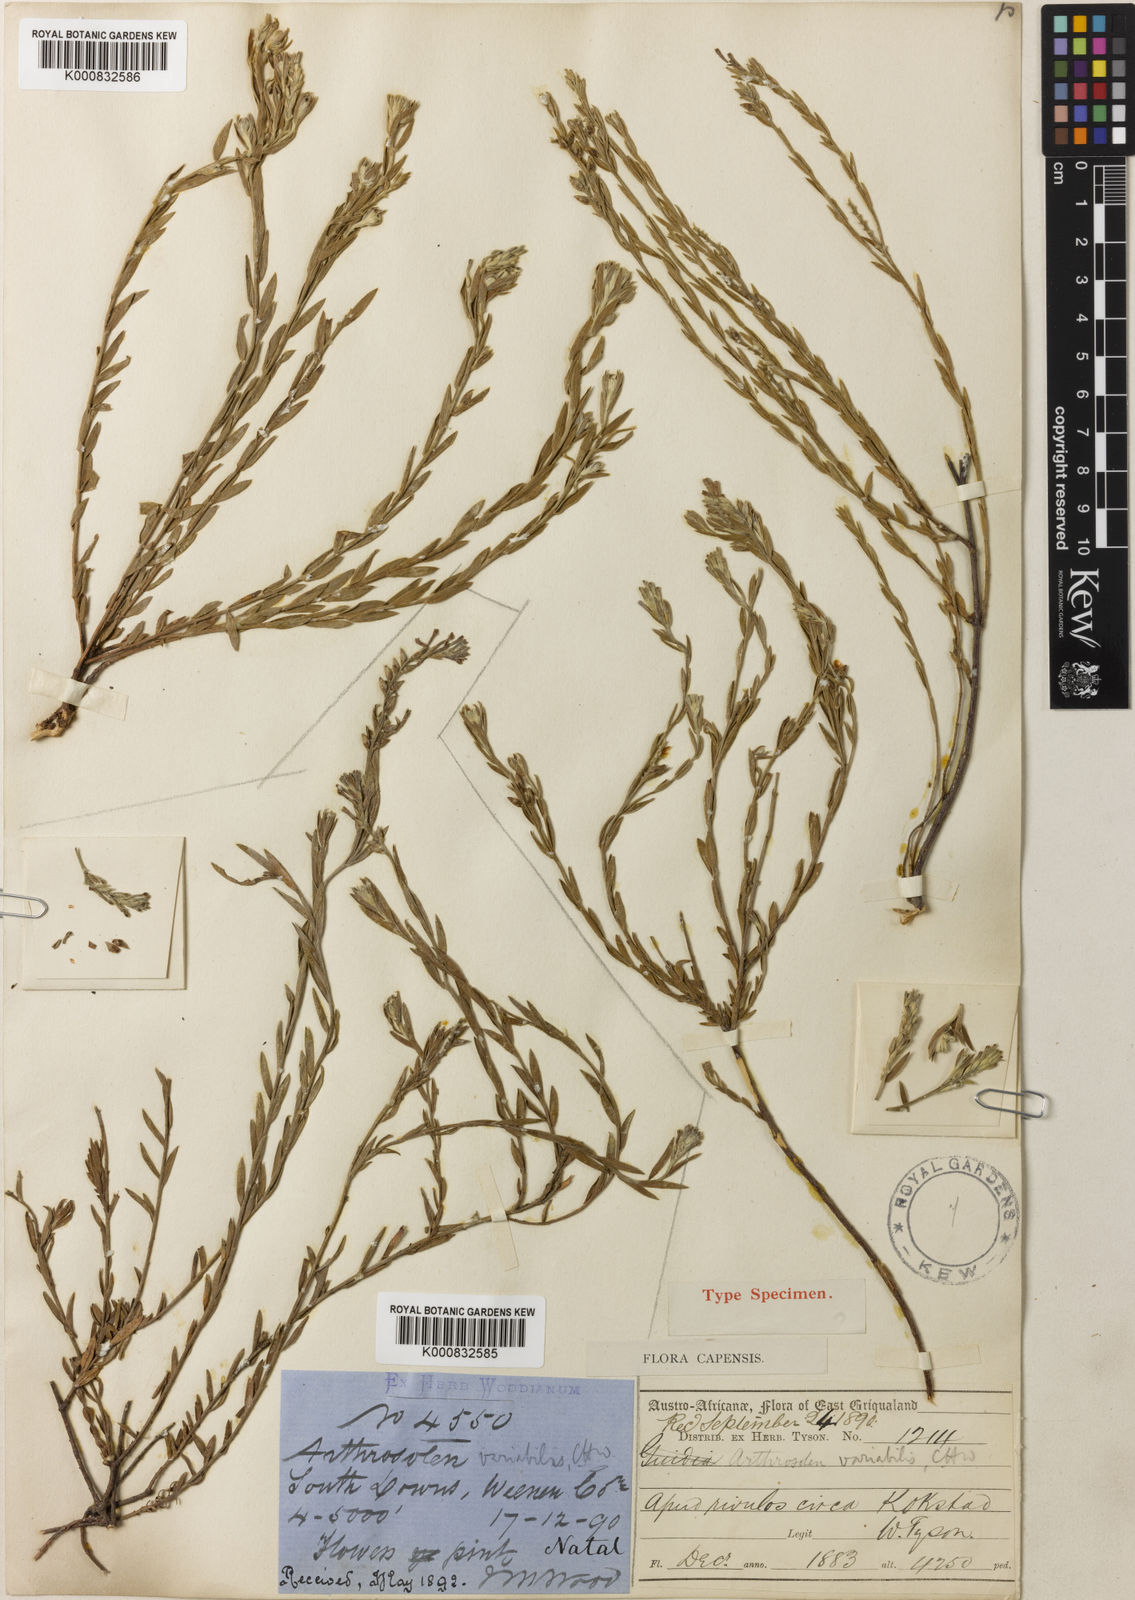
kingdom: Plantae
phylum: Tracheophyta
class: Magnoliopsida
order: Malvales
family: Thymelaeaceae
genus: Gnidia
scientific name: Gnidia variabilis
